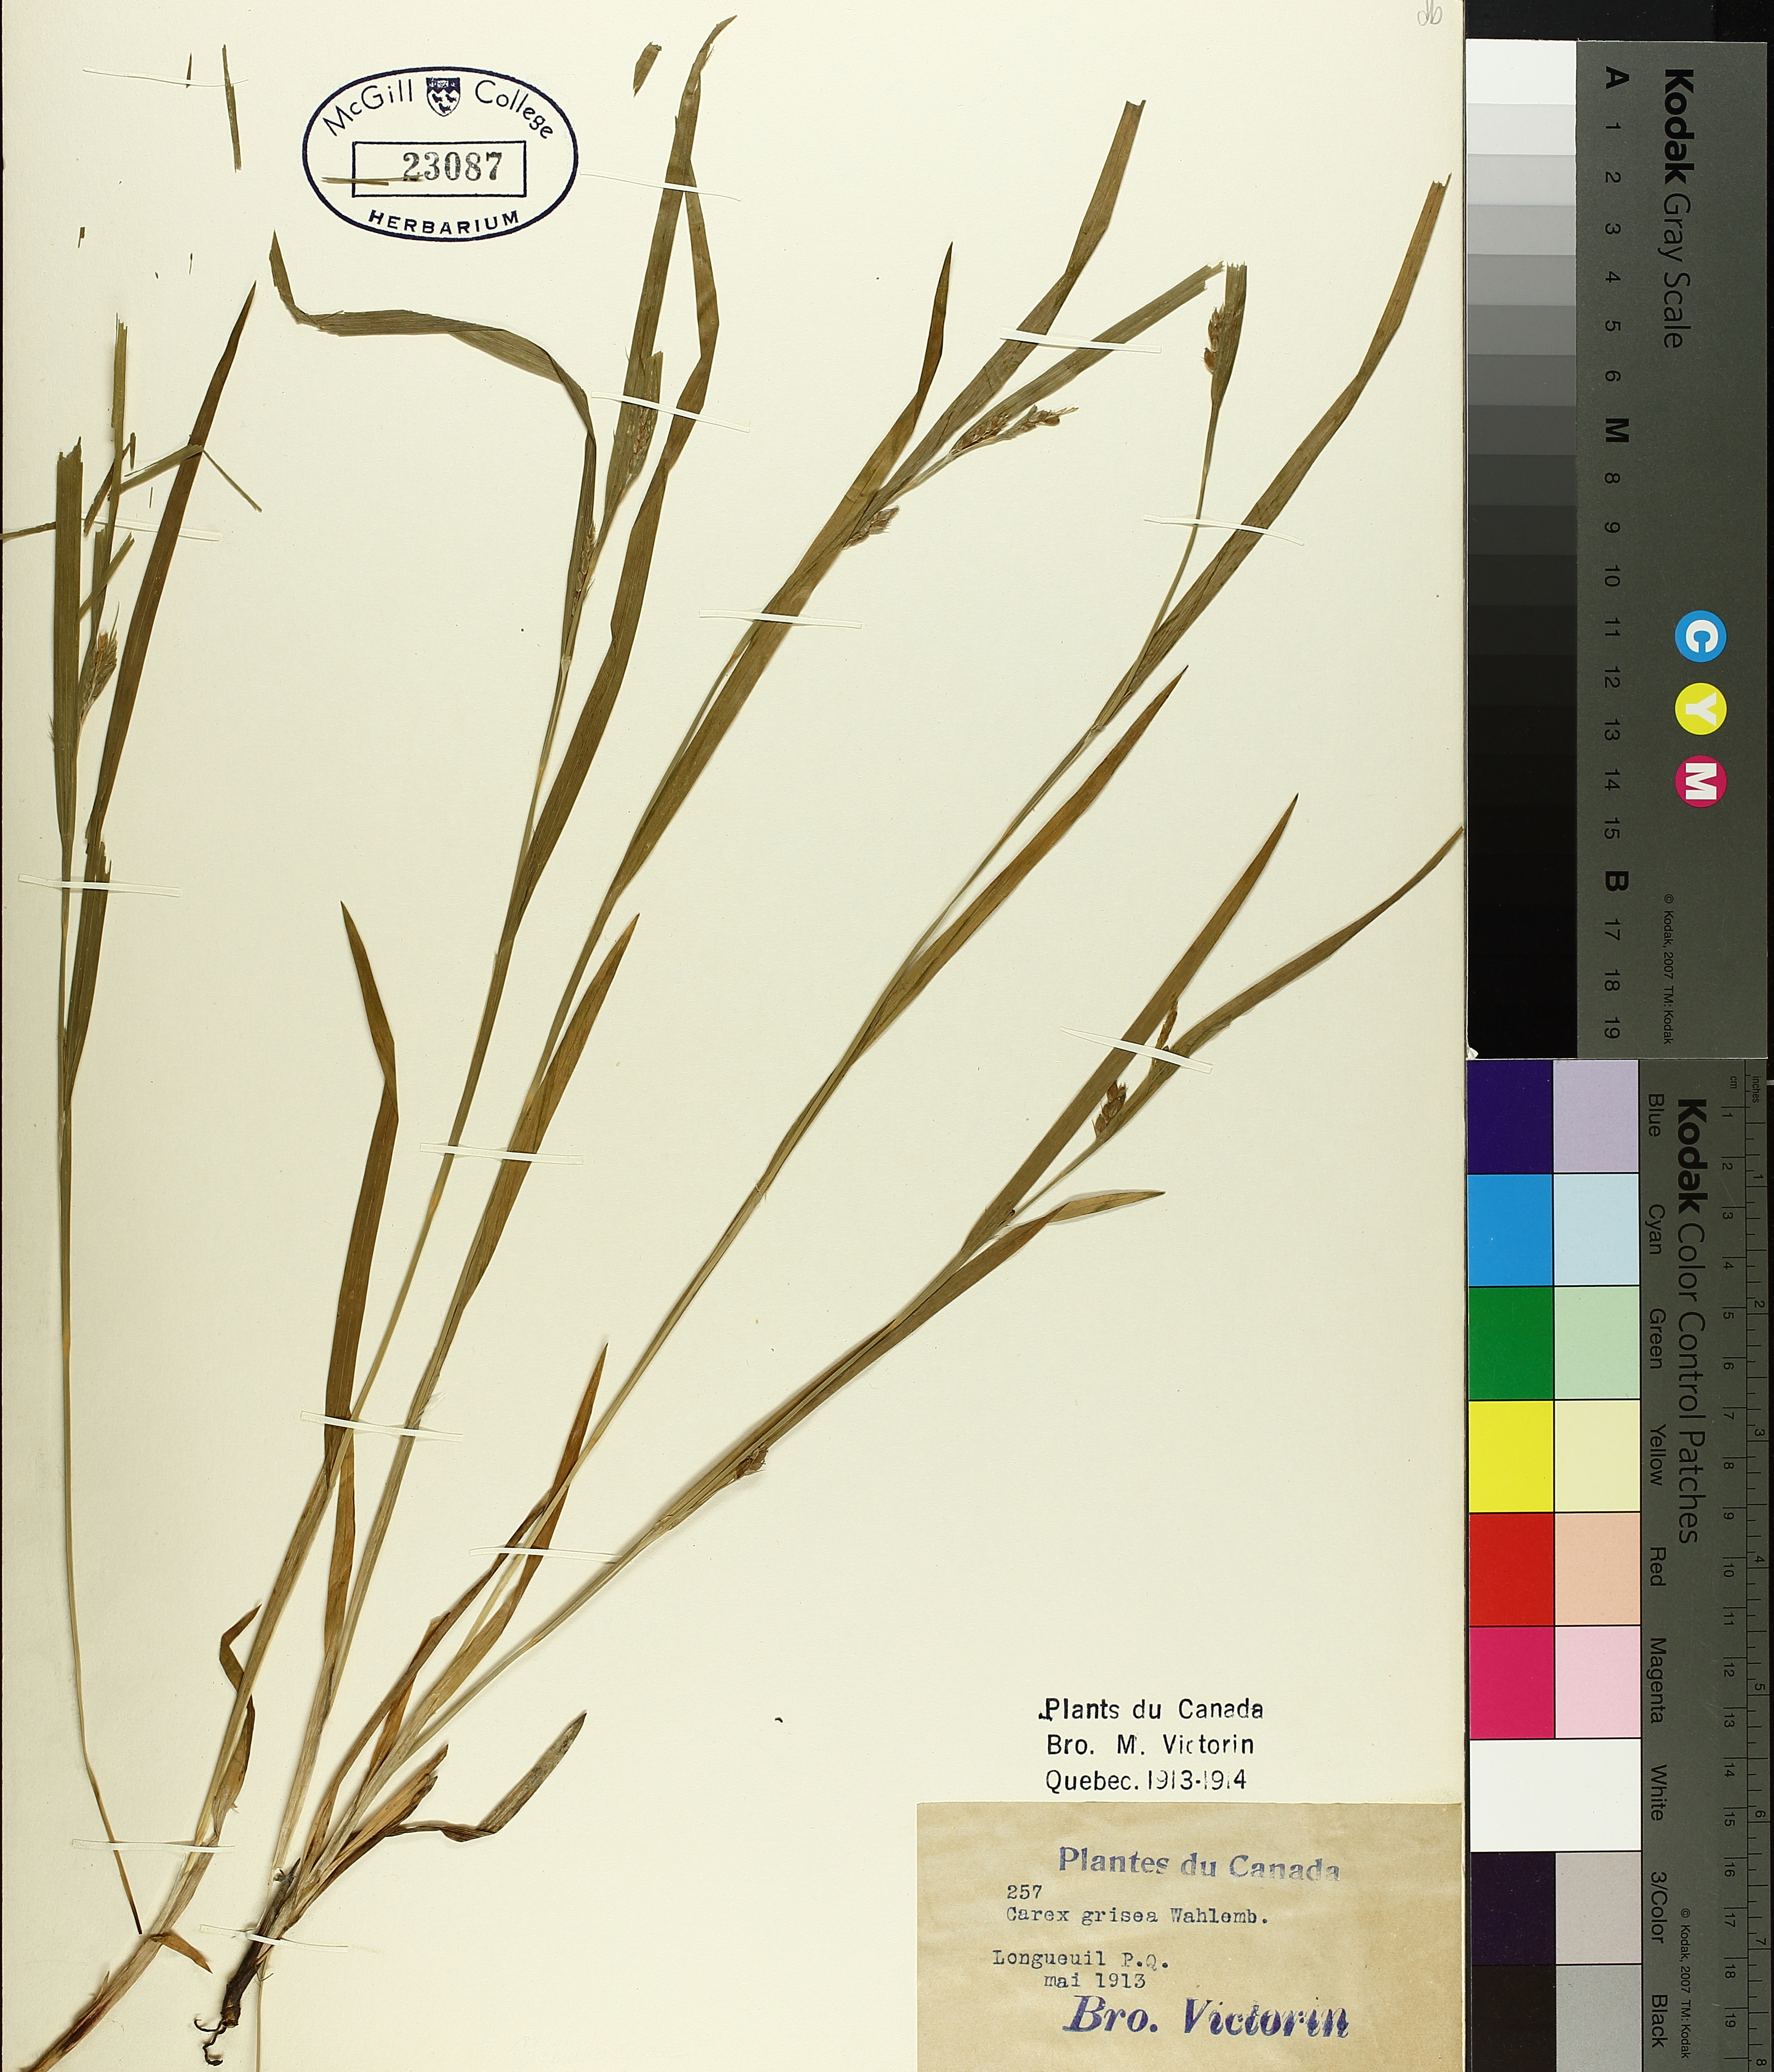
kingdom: Plantae
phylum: Tracheophyta
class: Liliopsida
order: Poales
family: Cyperaceae
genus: Carex
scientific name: Carex grisea
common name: Eastern narrow-leaved sedge
